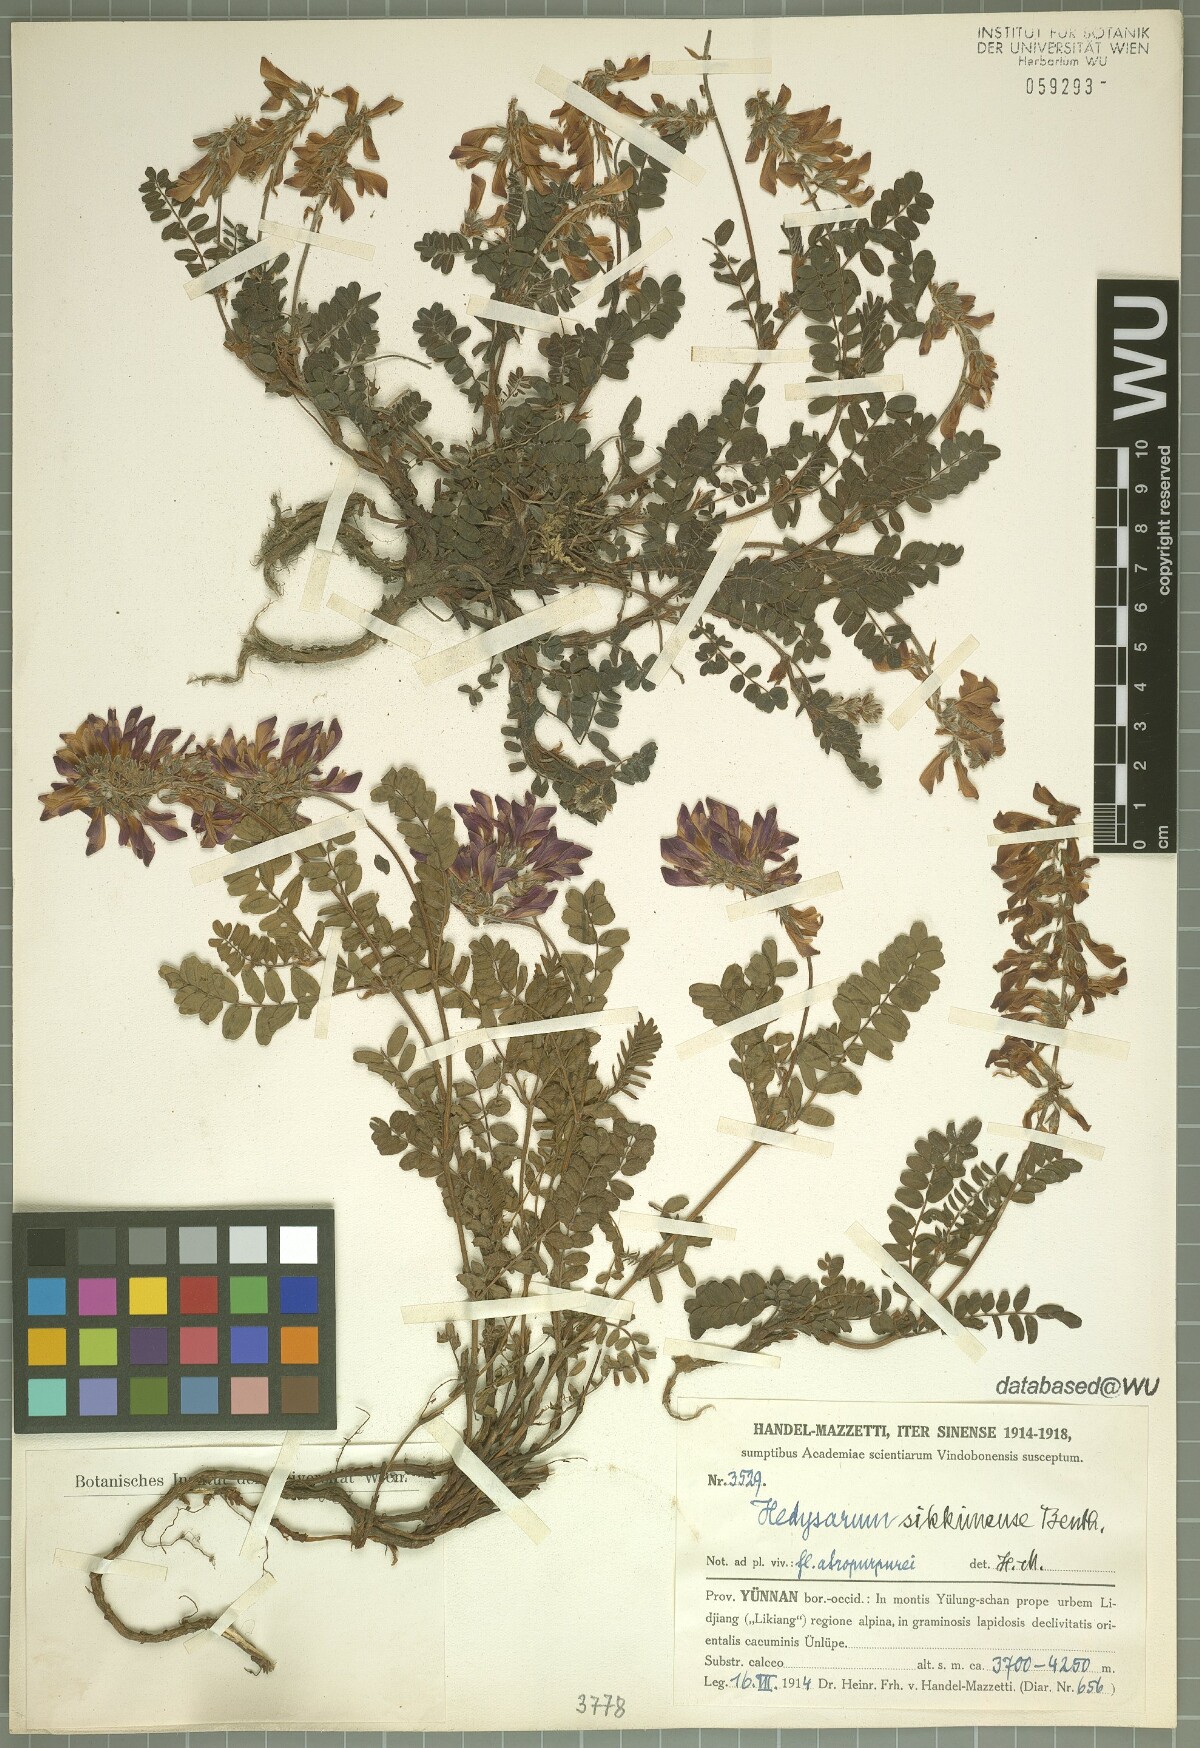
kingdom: Plantae
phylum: Tracheophyta
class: Magnoliopsida
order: Fabales
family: Fabaceae
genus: Hedysarum
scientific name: Hedysarum sikkimense
